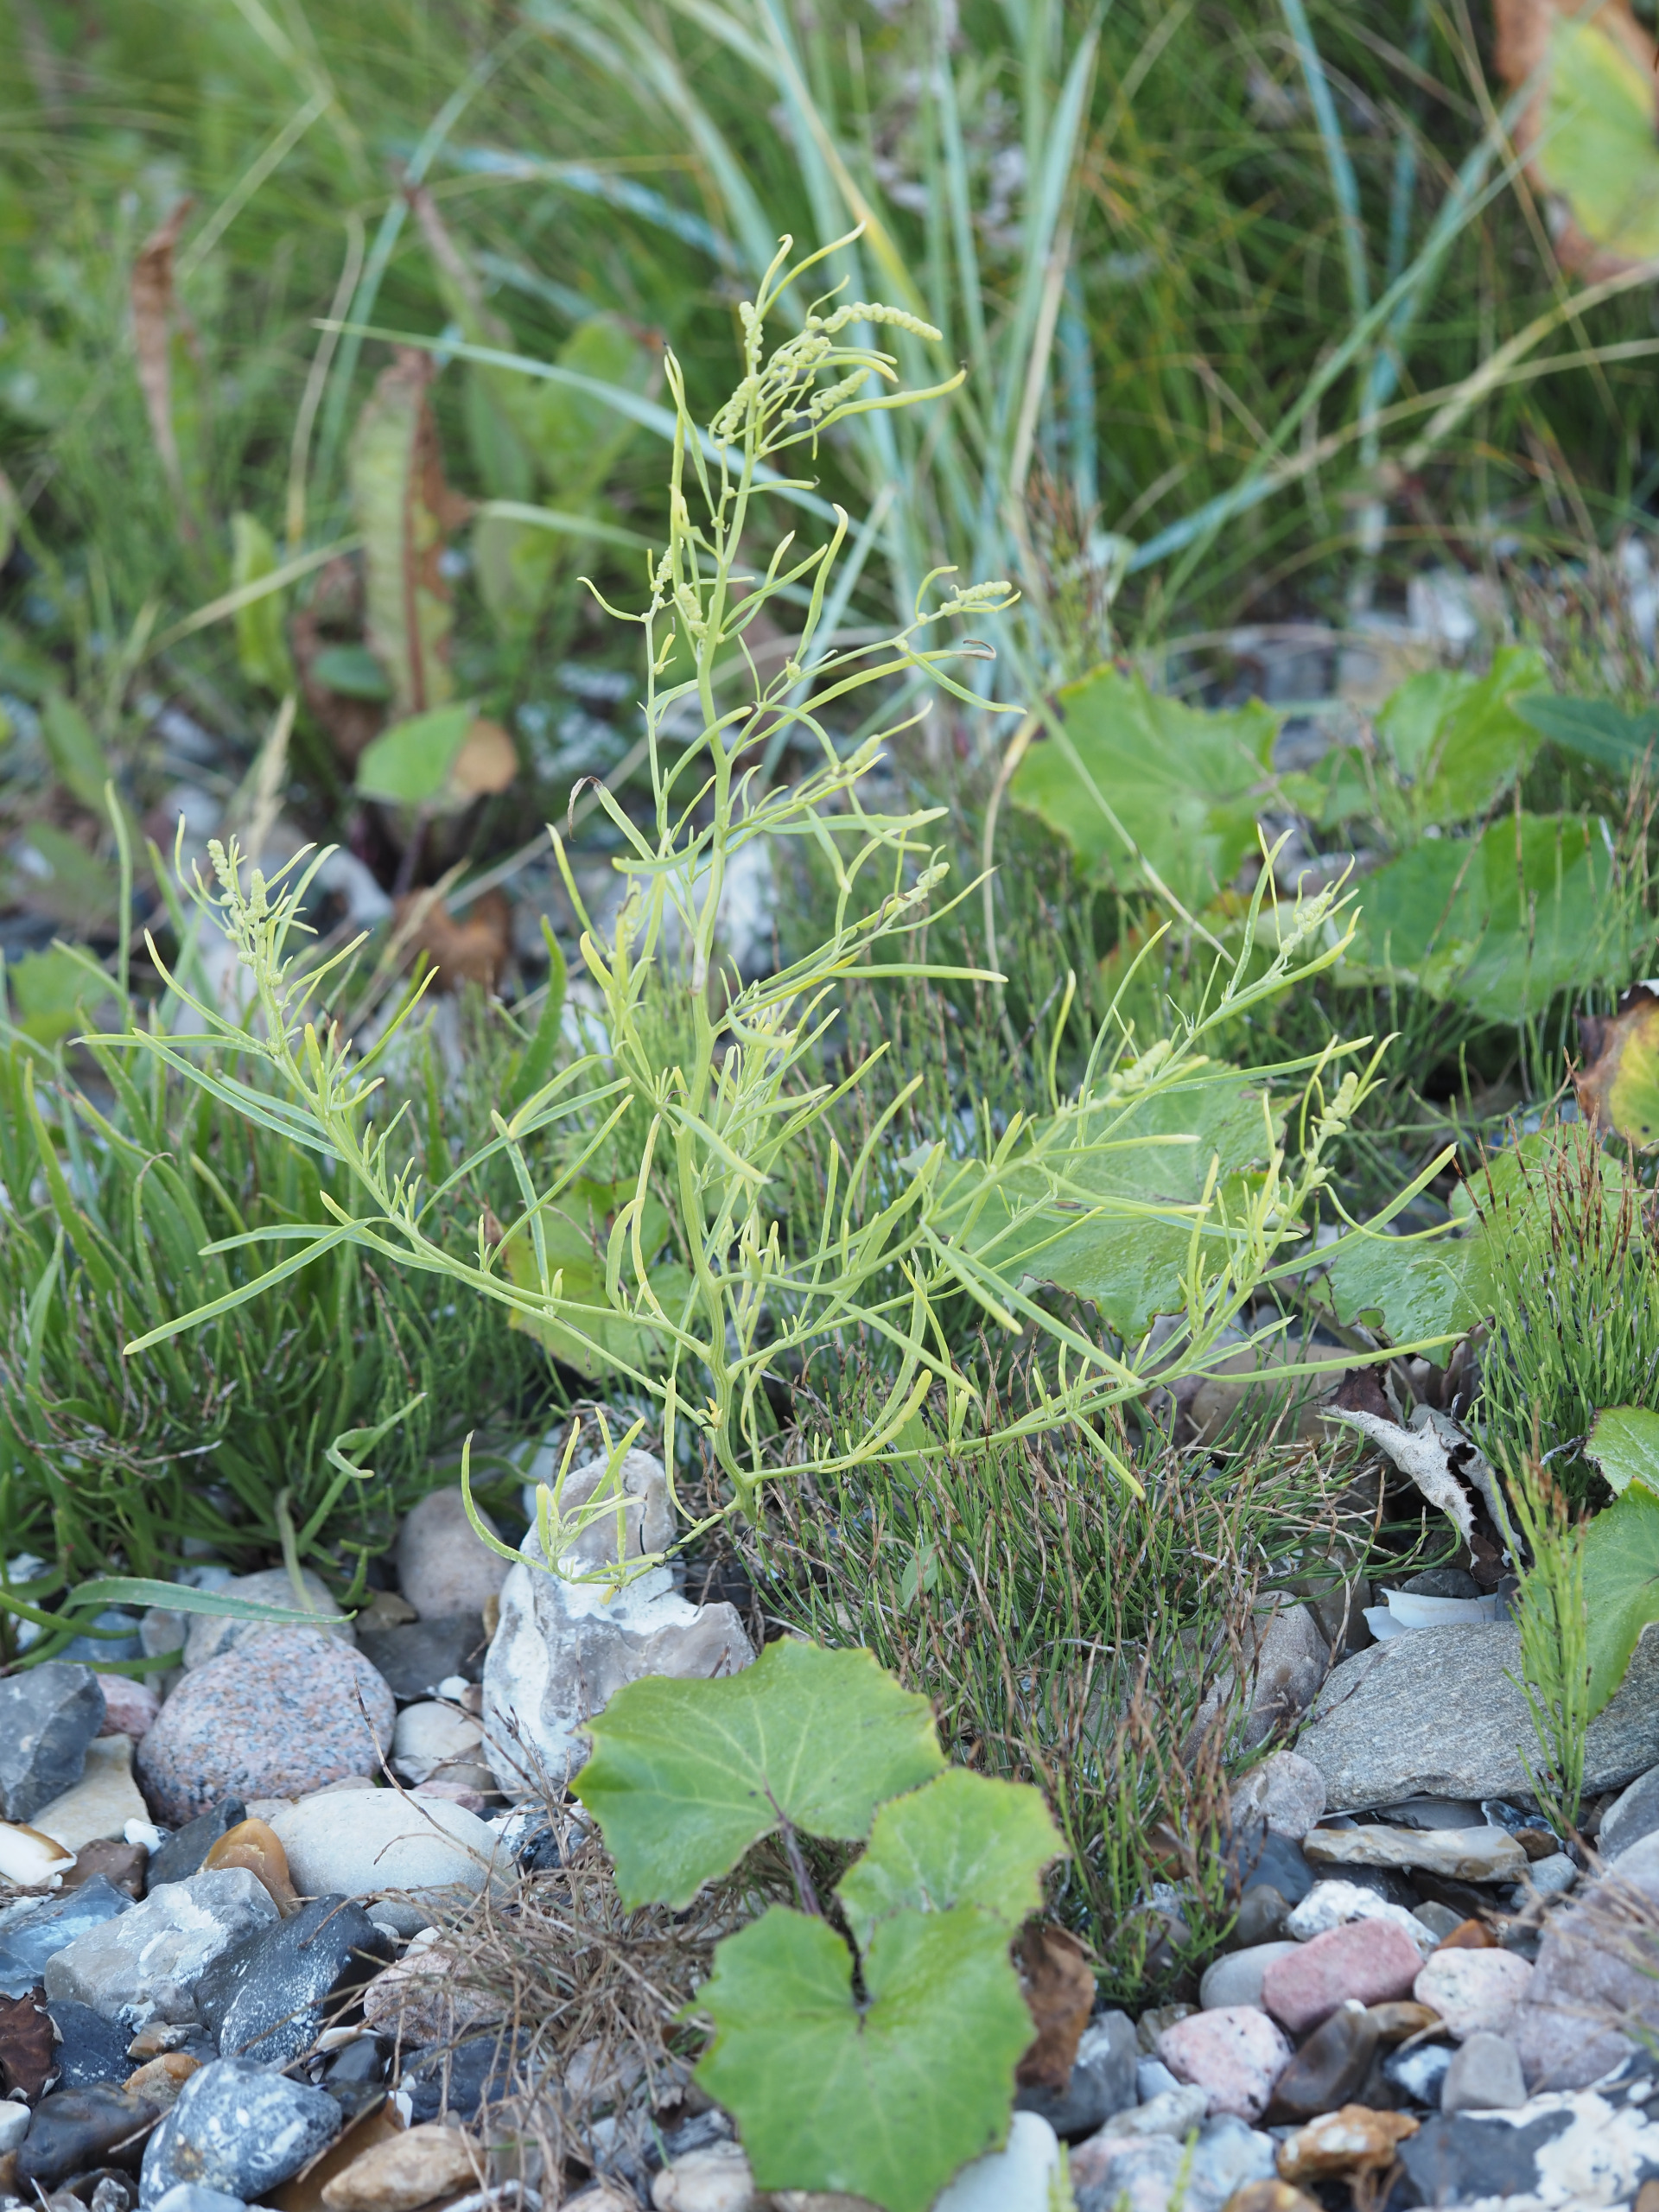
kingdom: Plantae
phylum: Tracheophyta
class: Magnoliopsida
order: Caryophyllales
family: Amaranthaceae
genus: Atriplex
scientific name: Atriplex littoralis
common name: Strand-mælde
